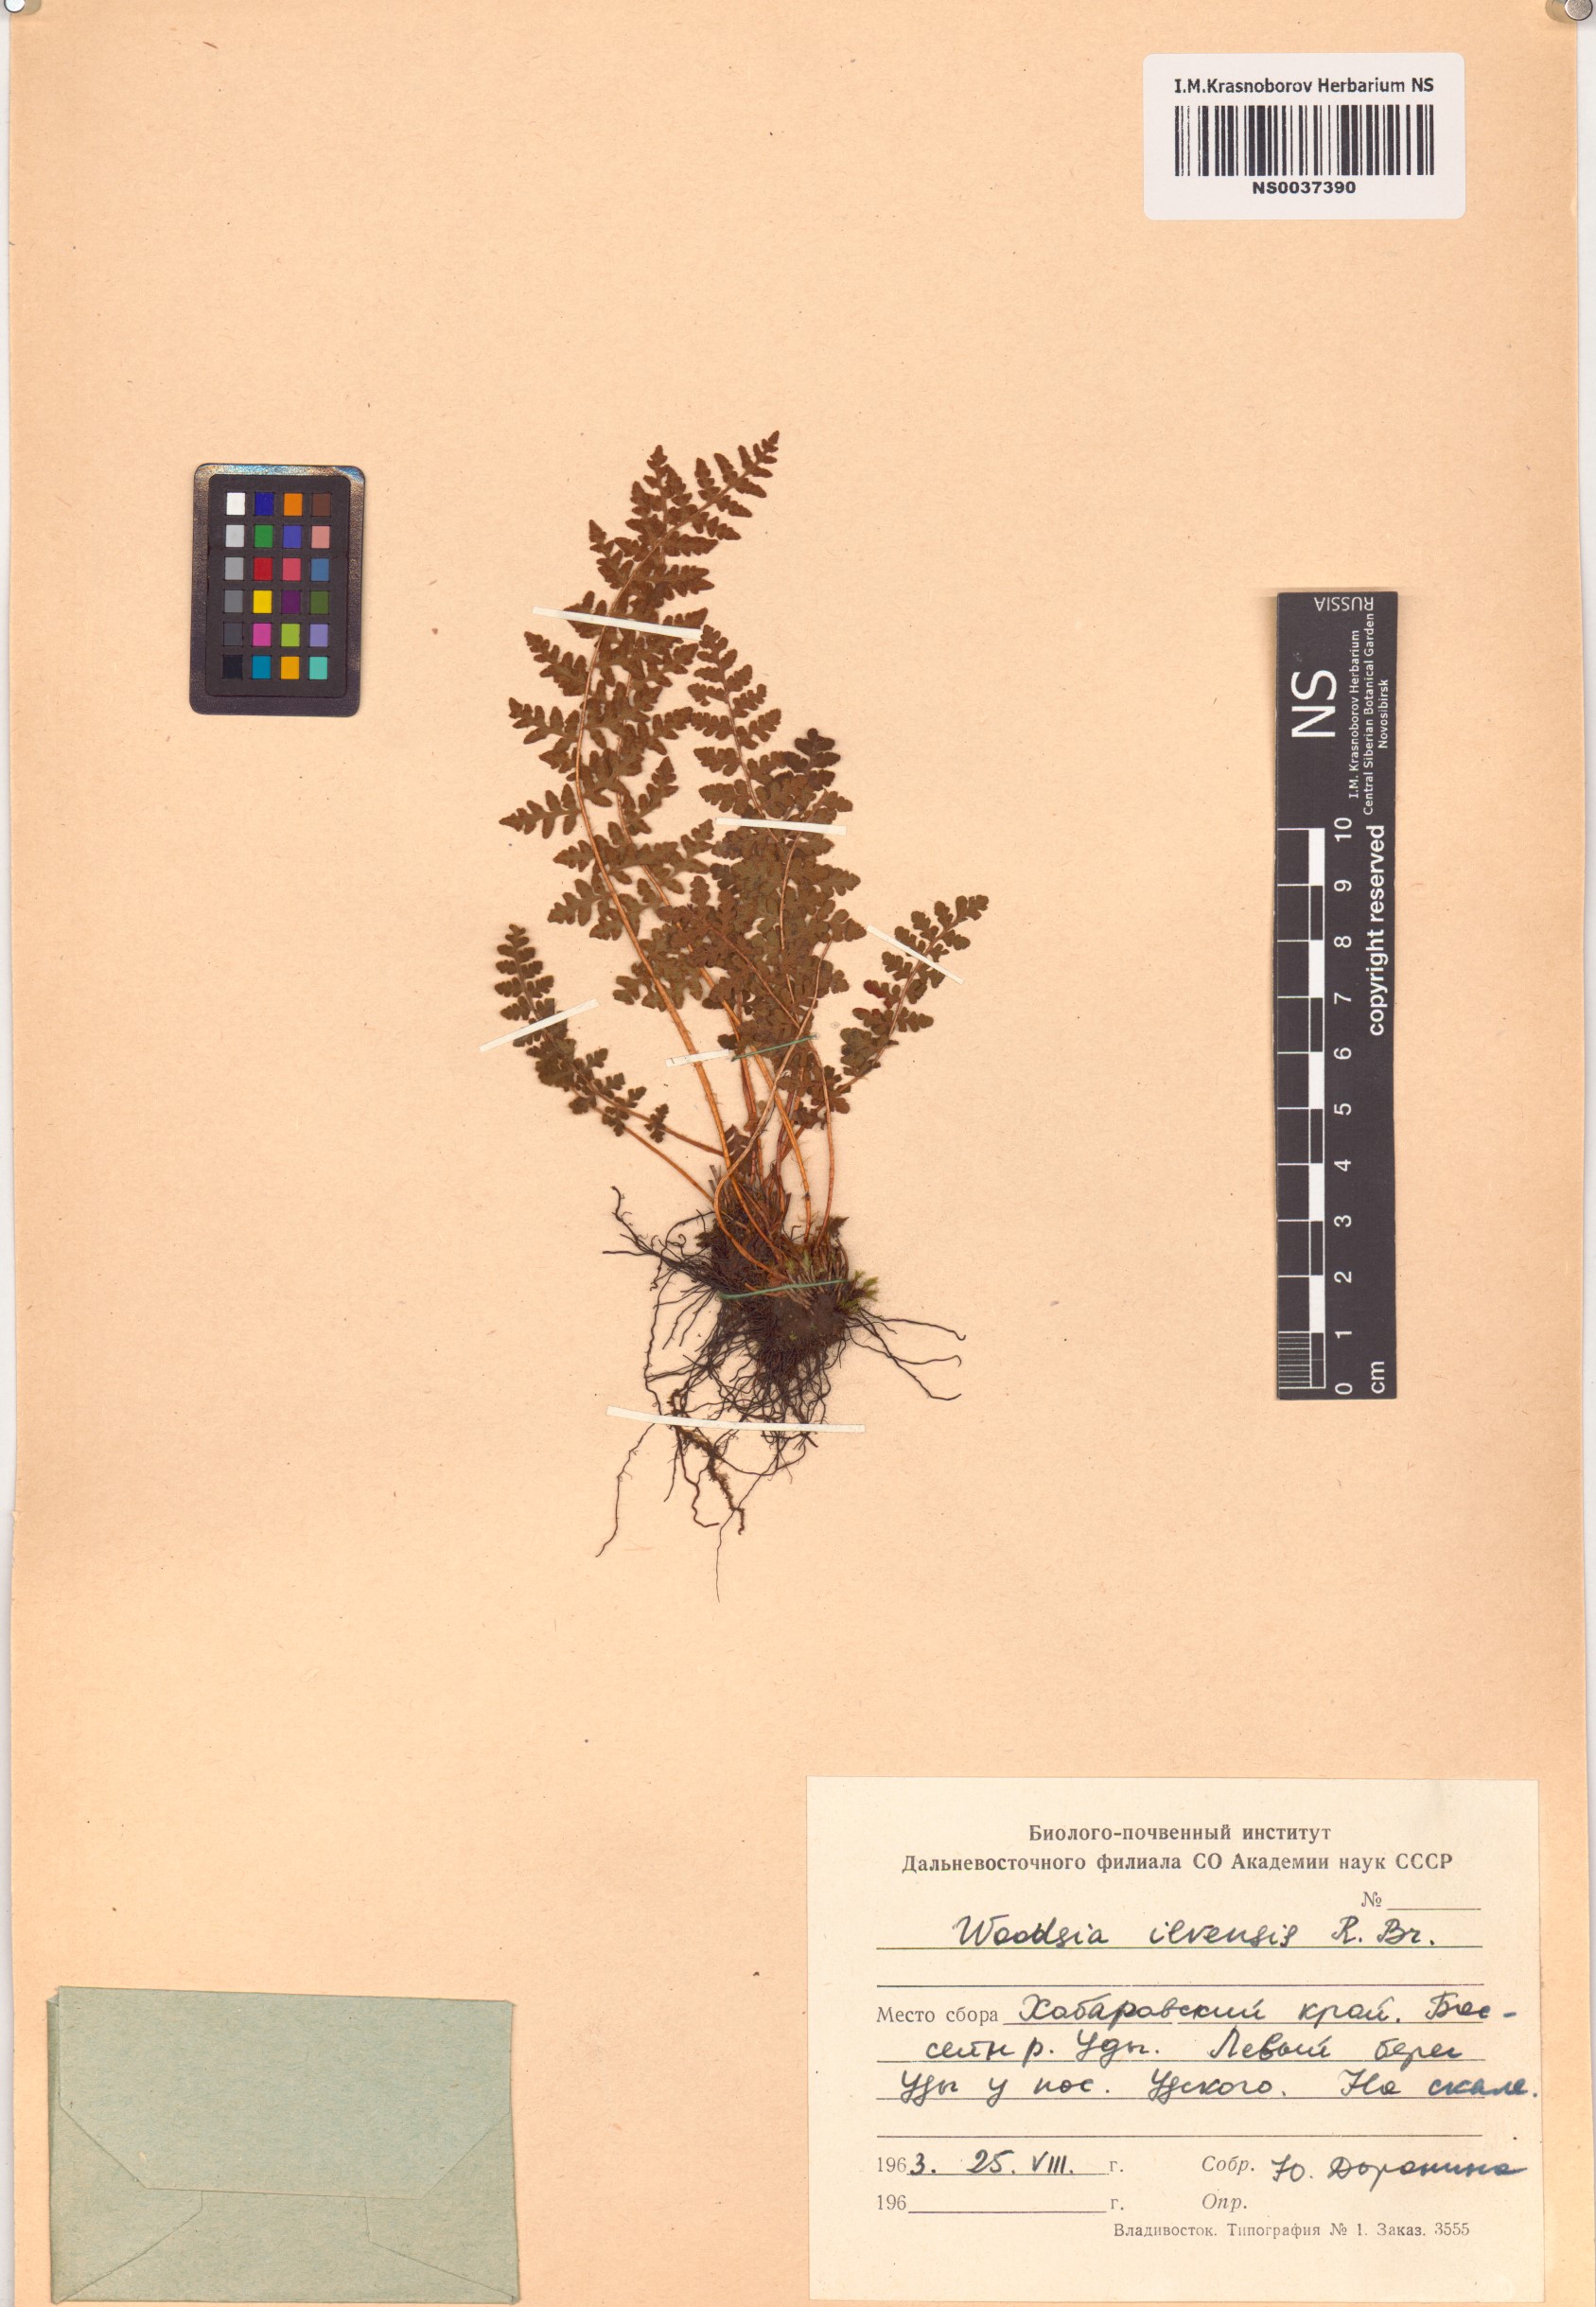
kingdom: Plantae
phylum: Tracheophyta
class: Polypodiopsida
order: Polypodiales
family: Woodsiaceae
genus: Woodsia
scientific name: Woodsia ilvensis
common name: Fragrant woodsia
